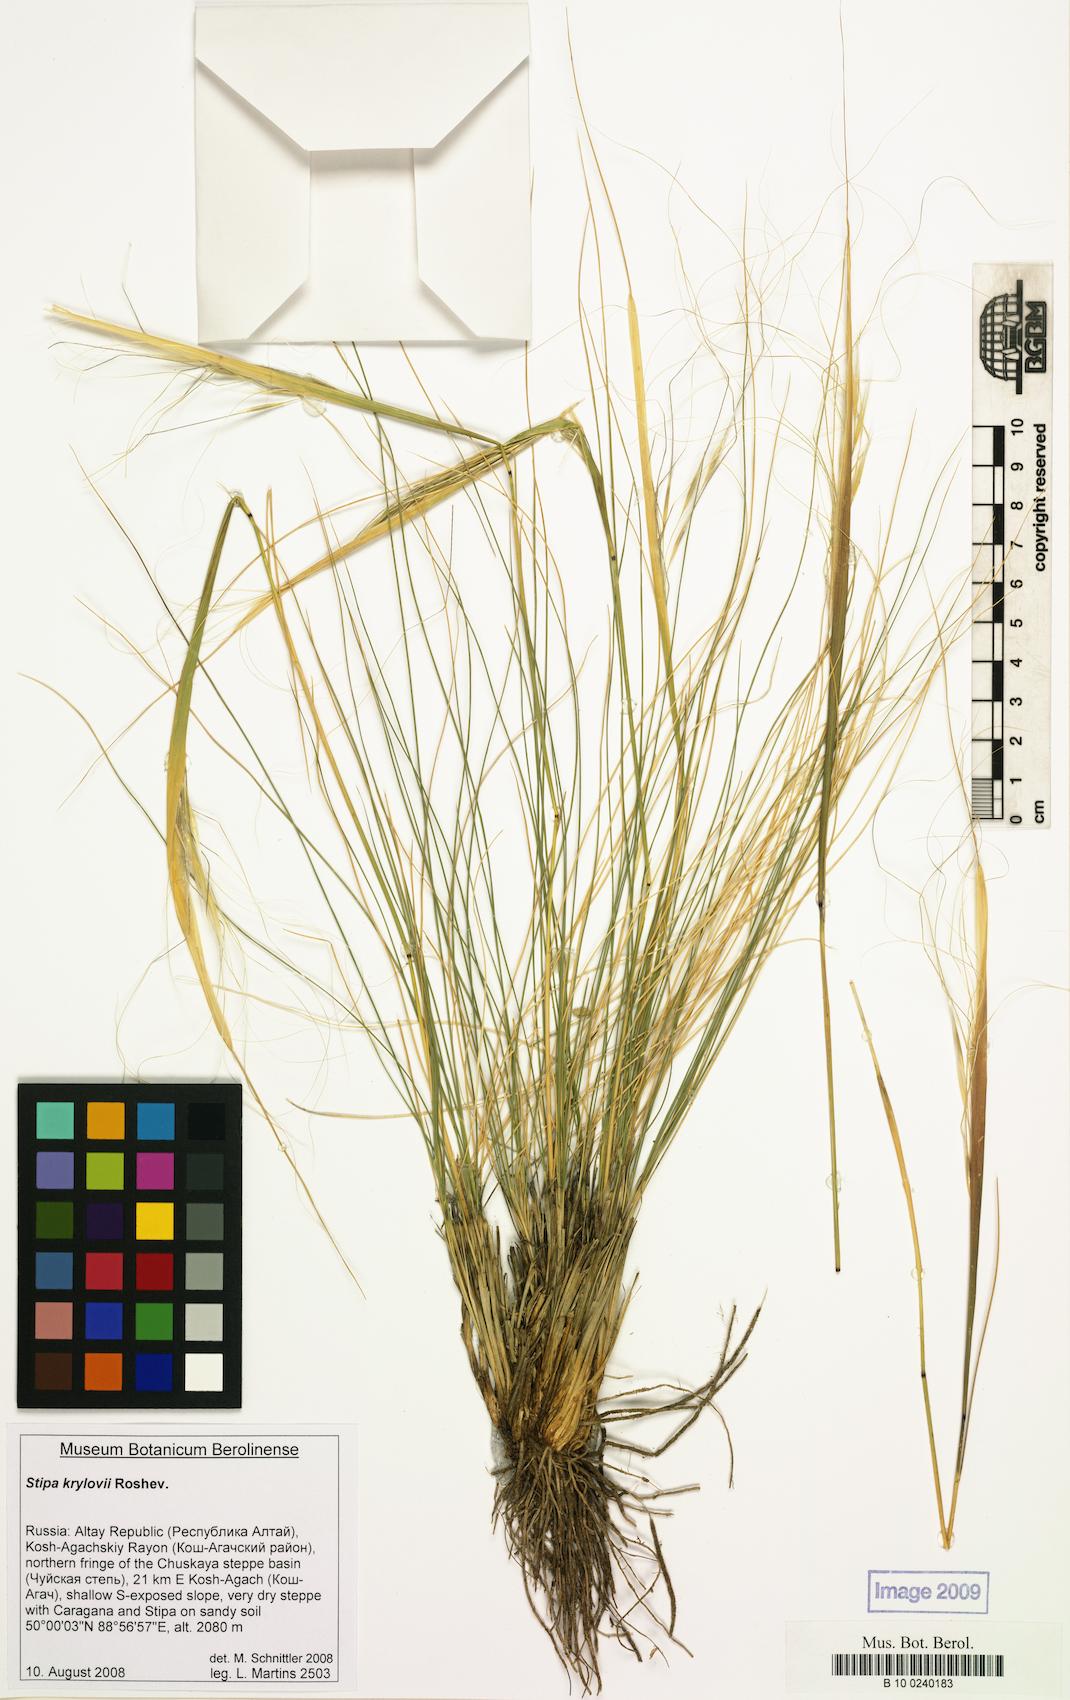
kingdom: Plantae
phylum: Tracheophyta
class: Liliopsida
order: Poales
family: Poaceae
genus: Stipa
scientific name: Stipa krylovii
